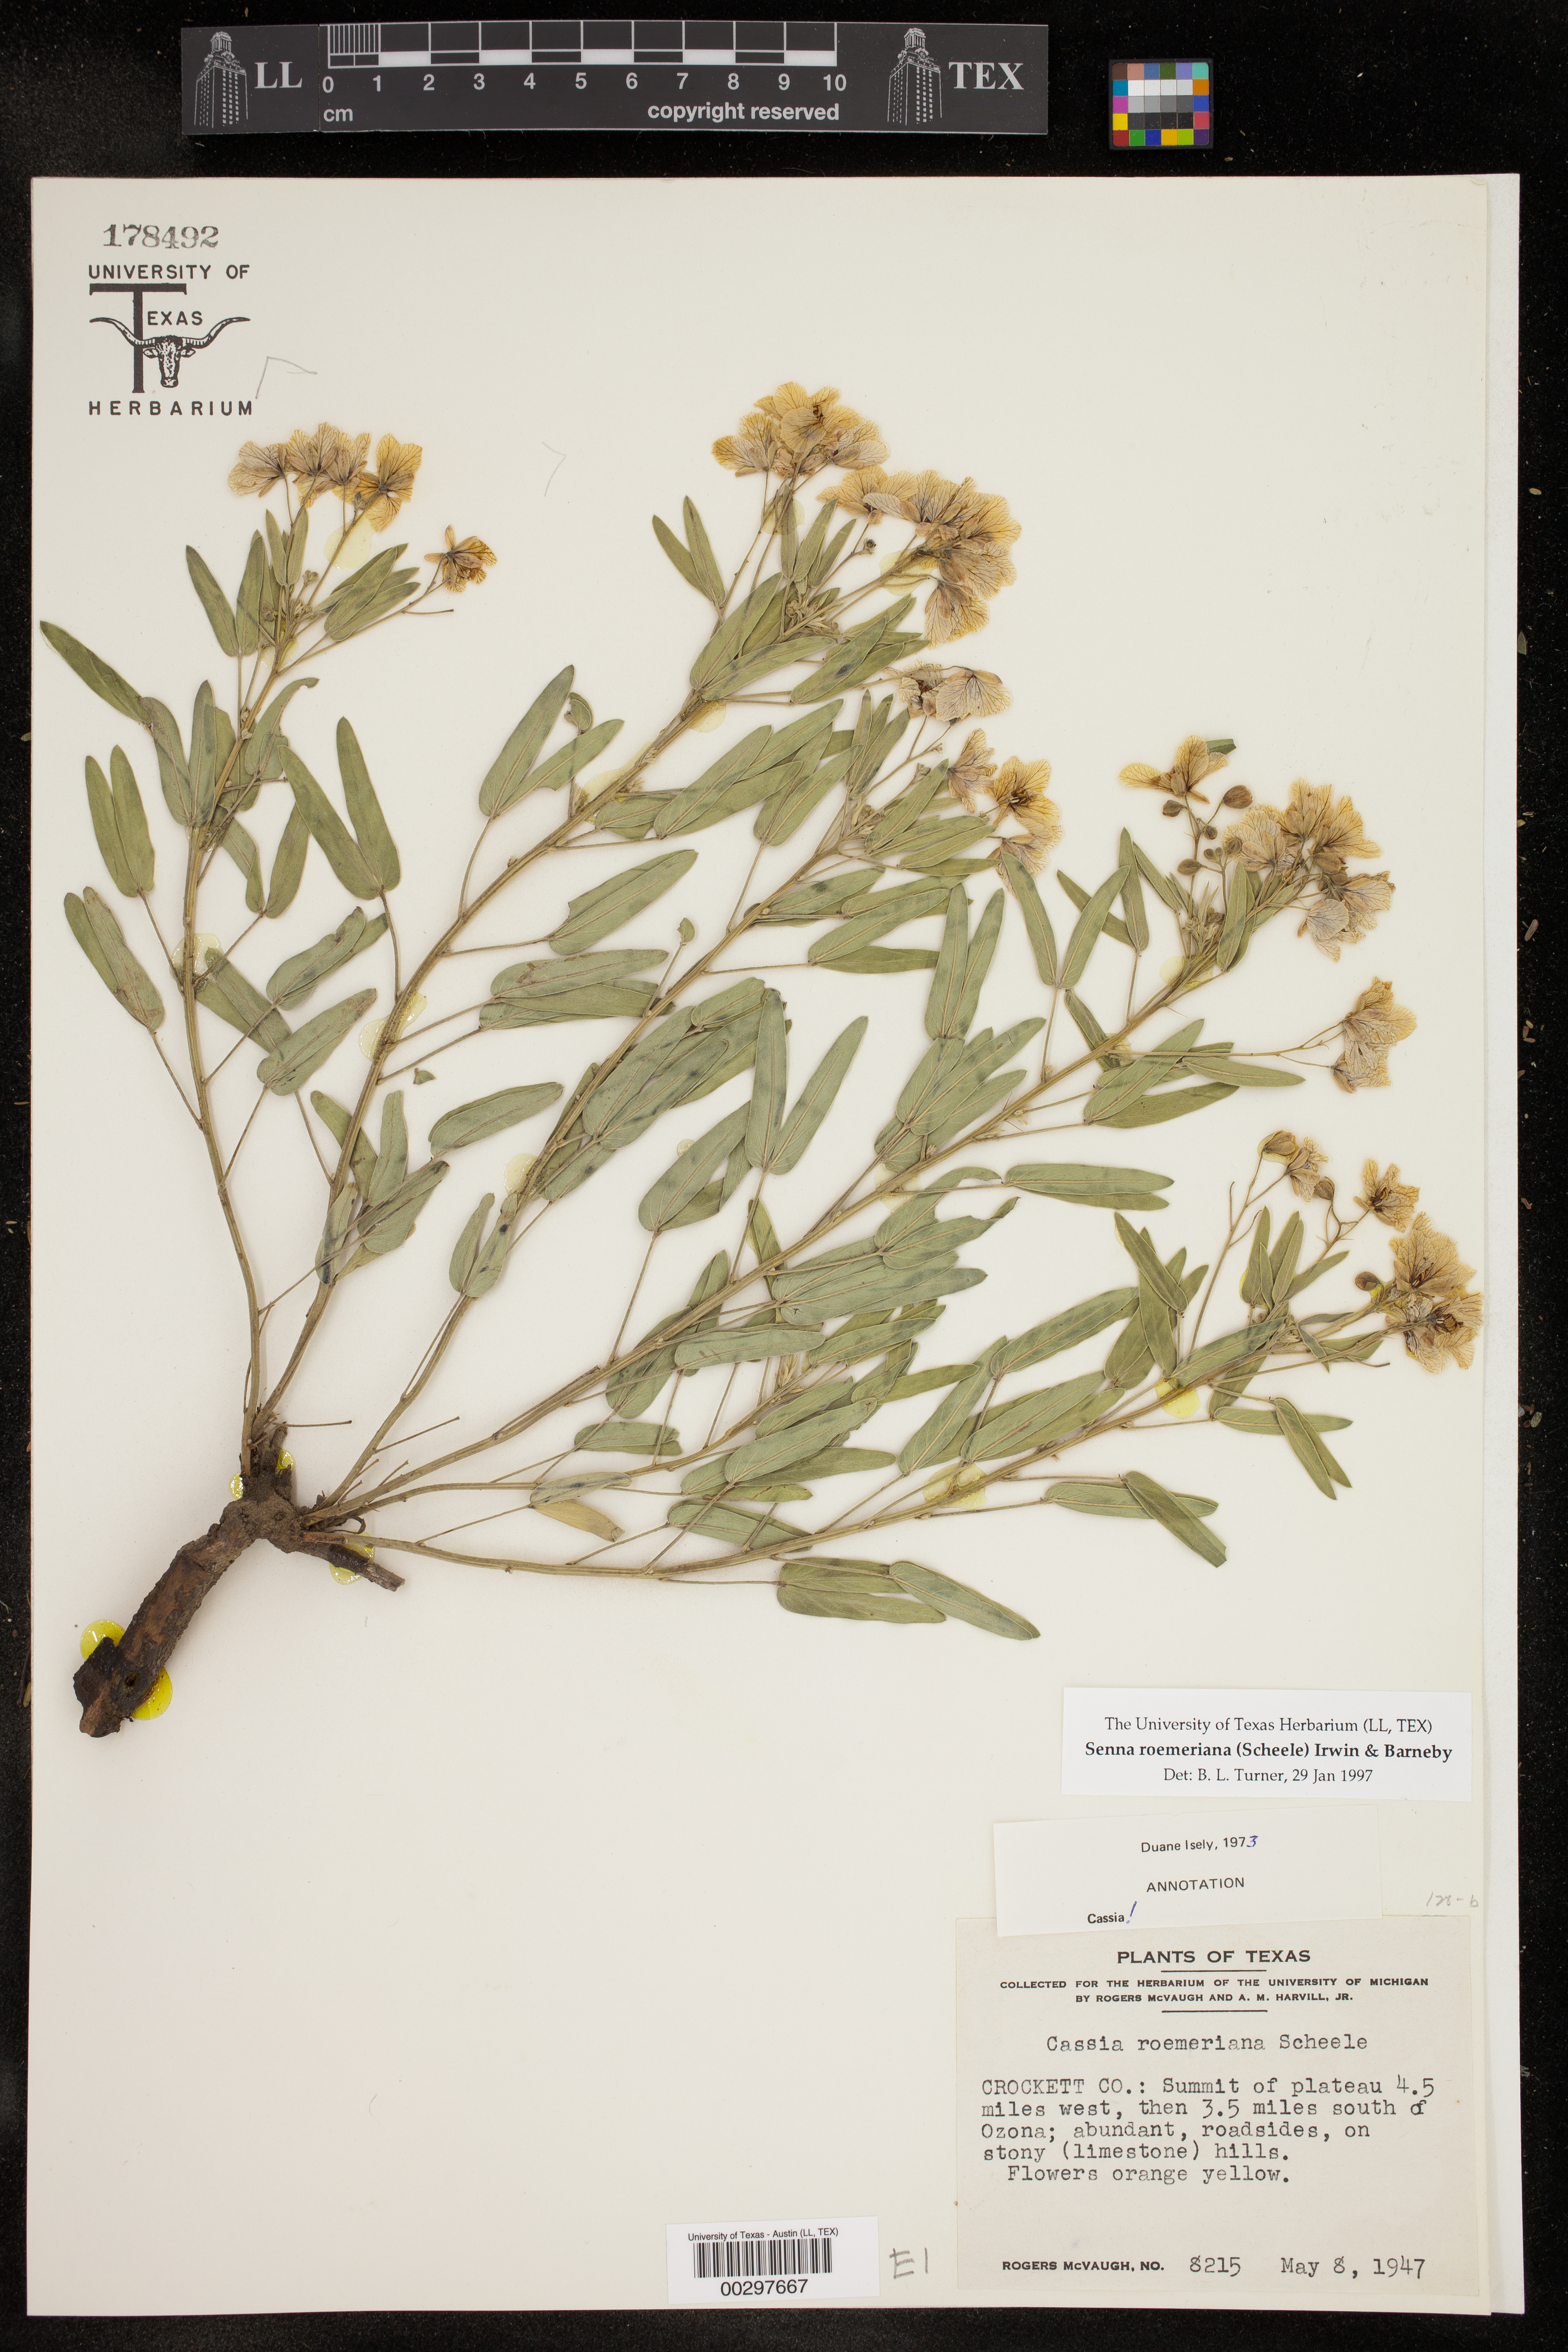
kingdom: Plantae
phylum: Tracheophyta
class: Magnoliopsida
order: Fabales
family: Fabaceae
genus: Senna
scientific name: Senna roemeriana
